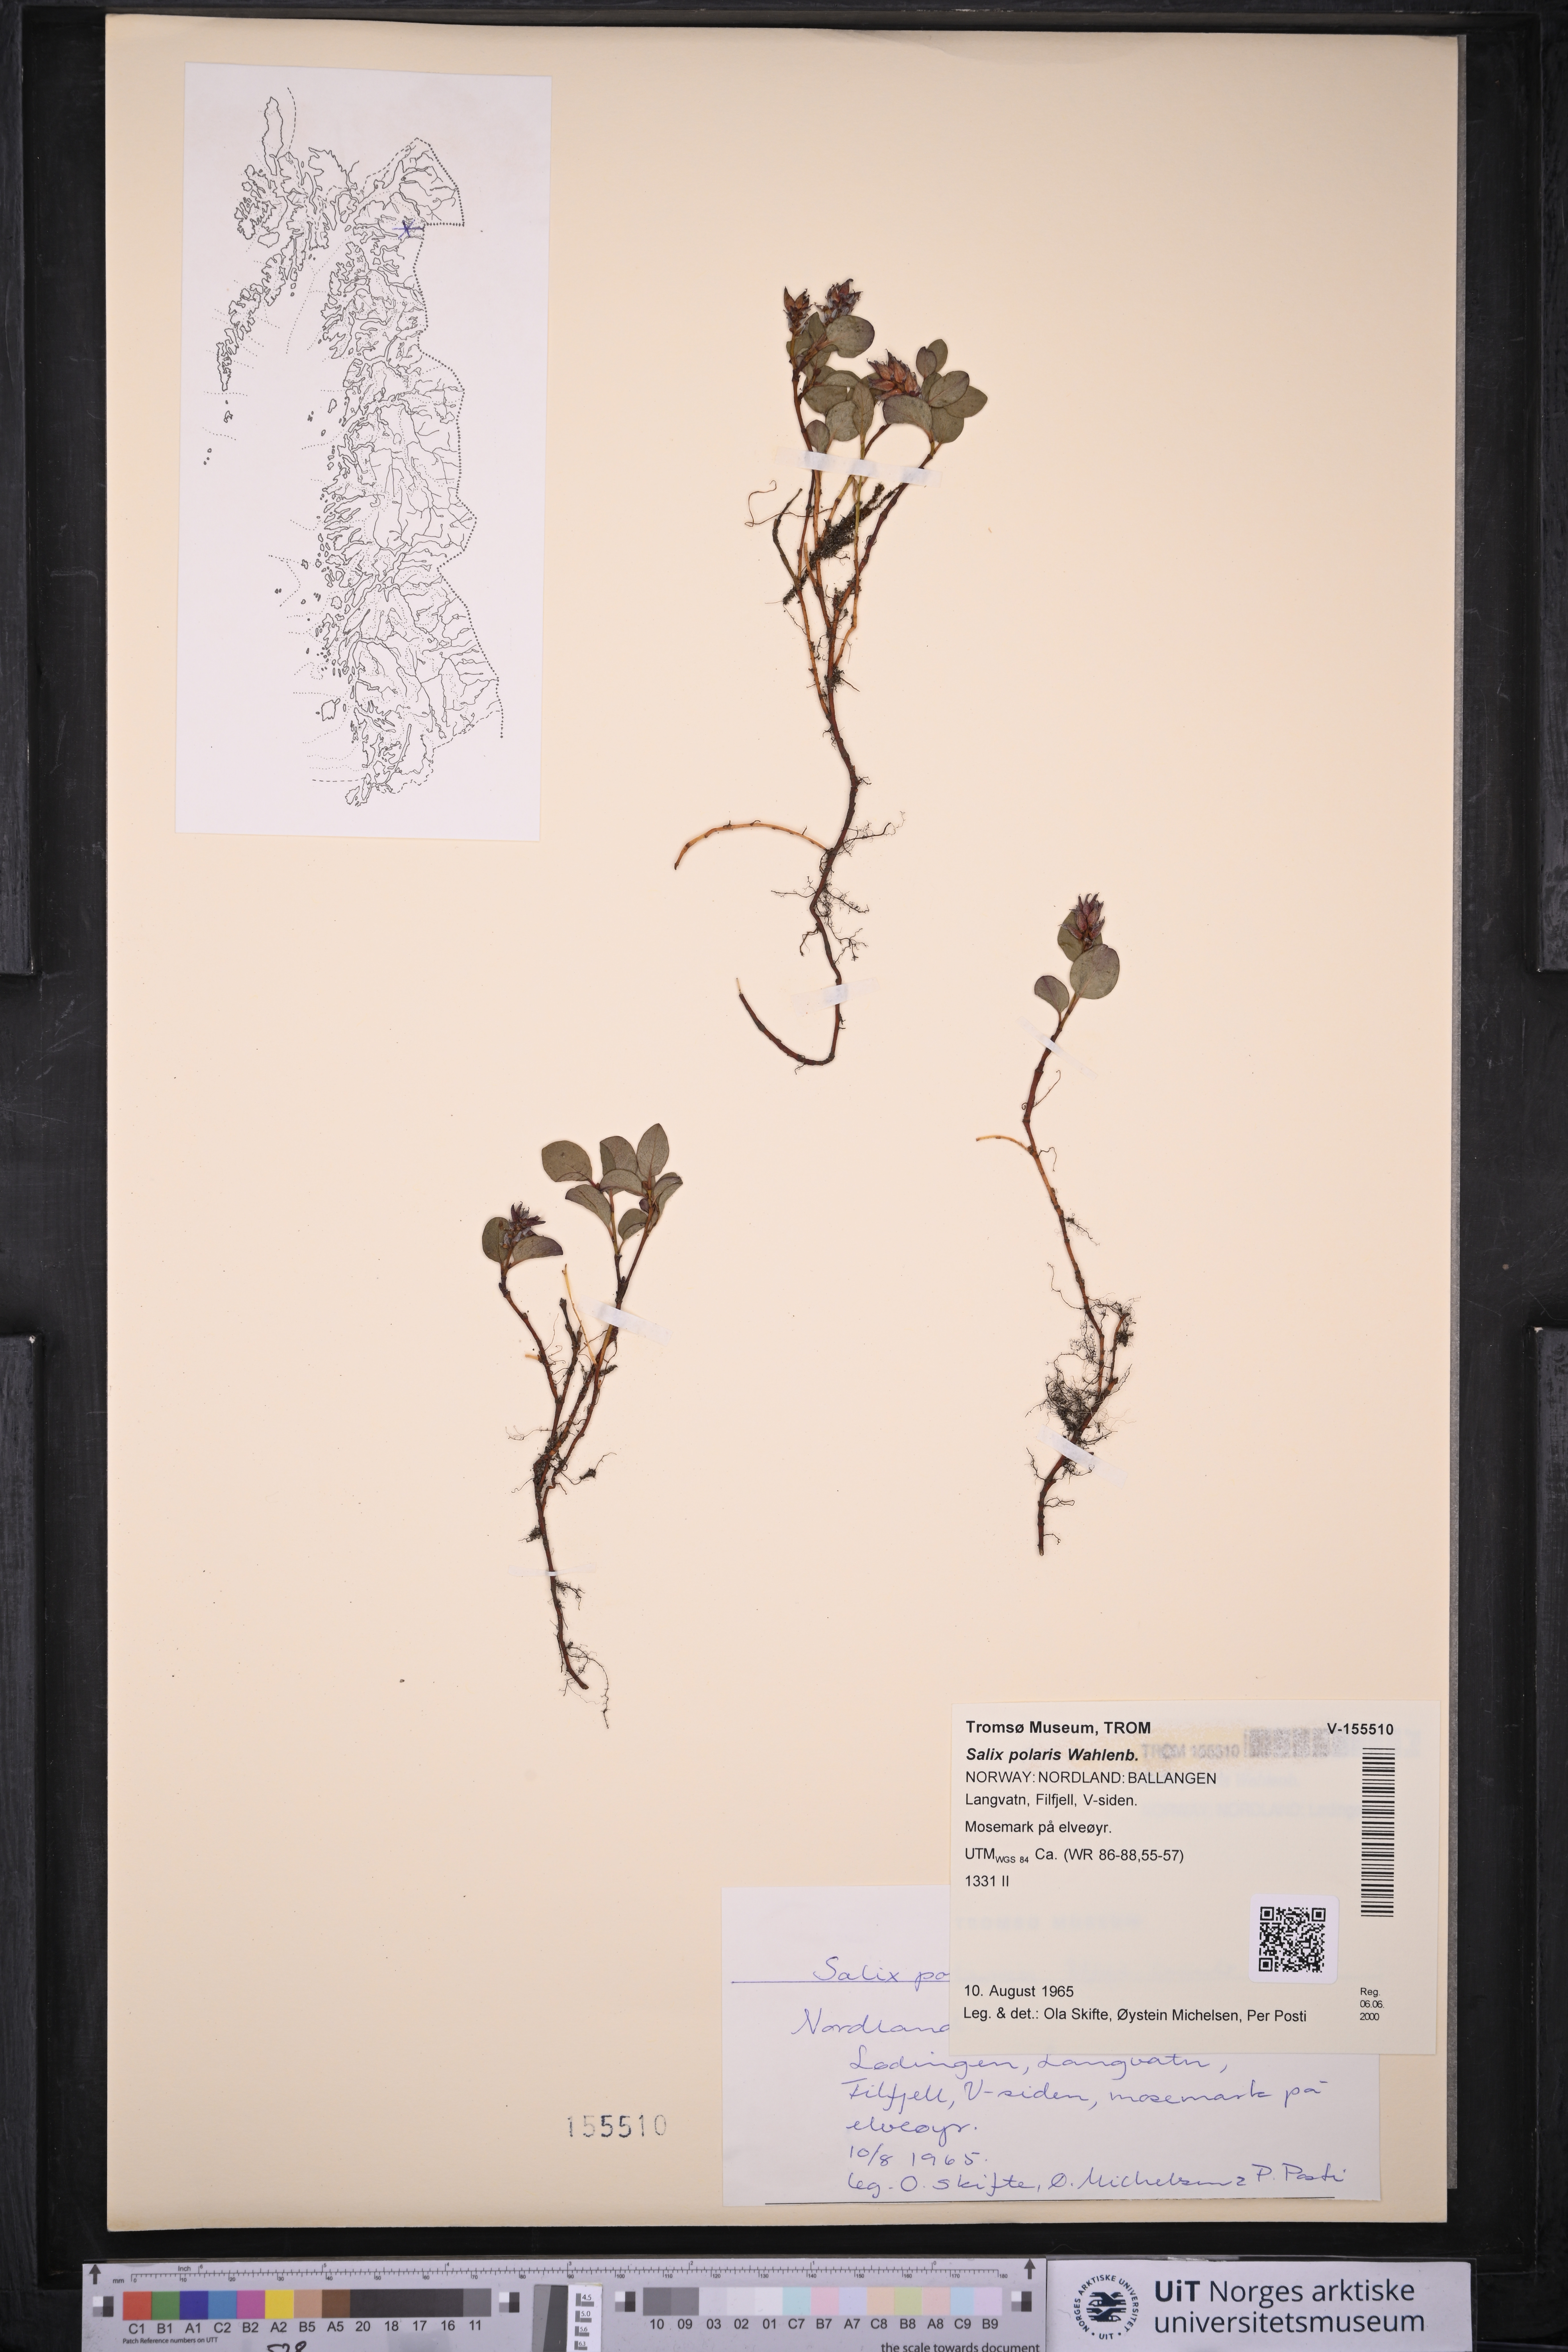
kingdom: Plantae
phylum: Tracheophyta
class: Magnoliopsida
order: Malpighiales
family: Salicaceae
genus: Salix
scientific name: Salix polaris
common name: Polar willow
